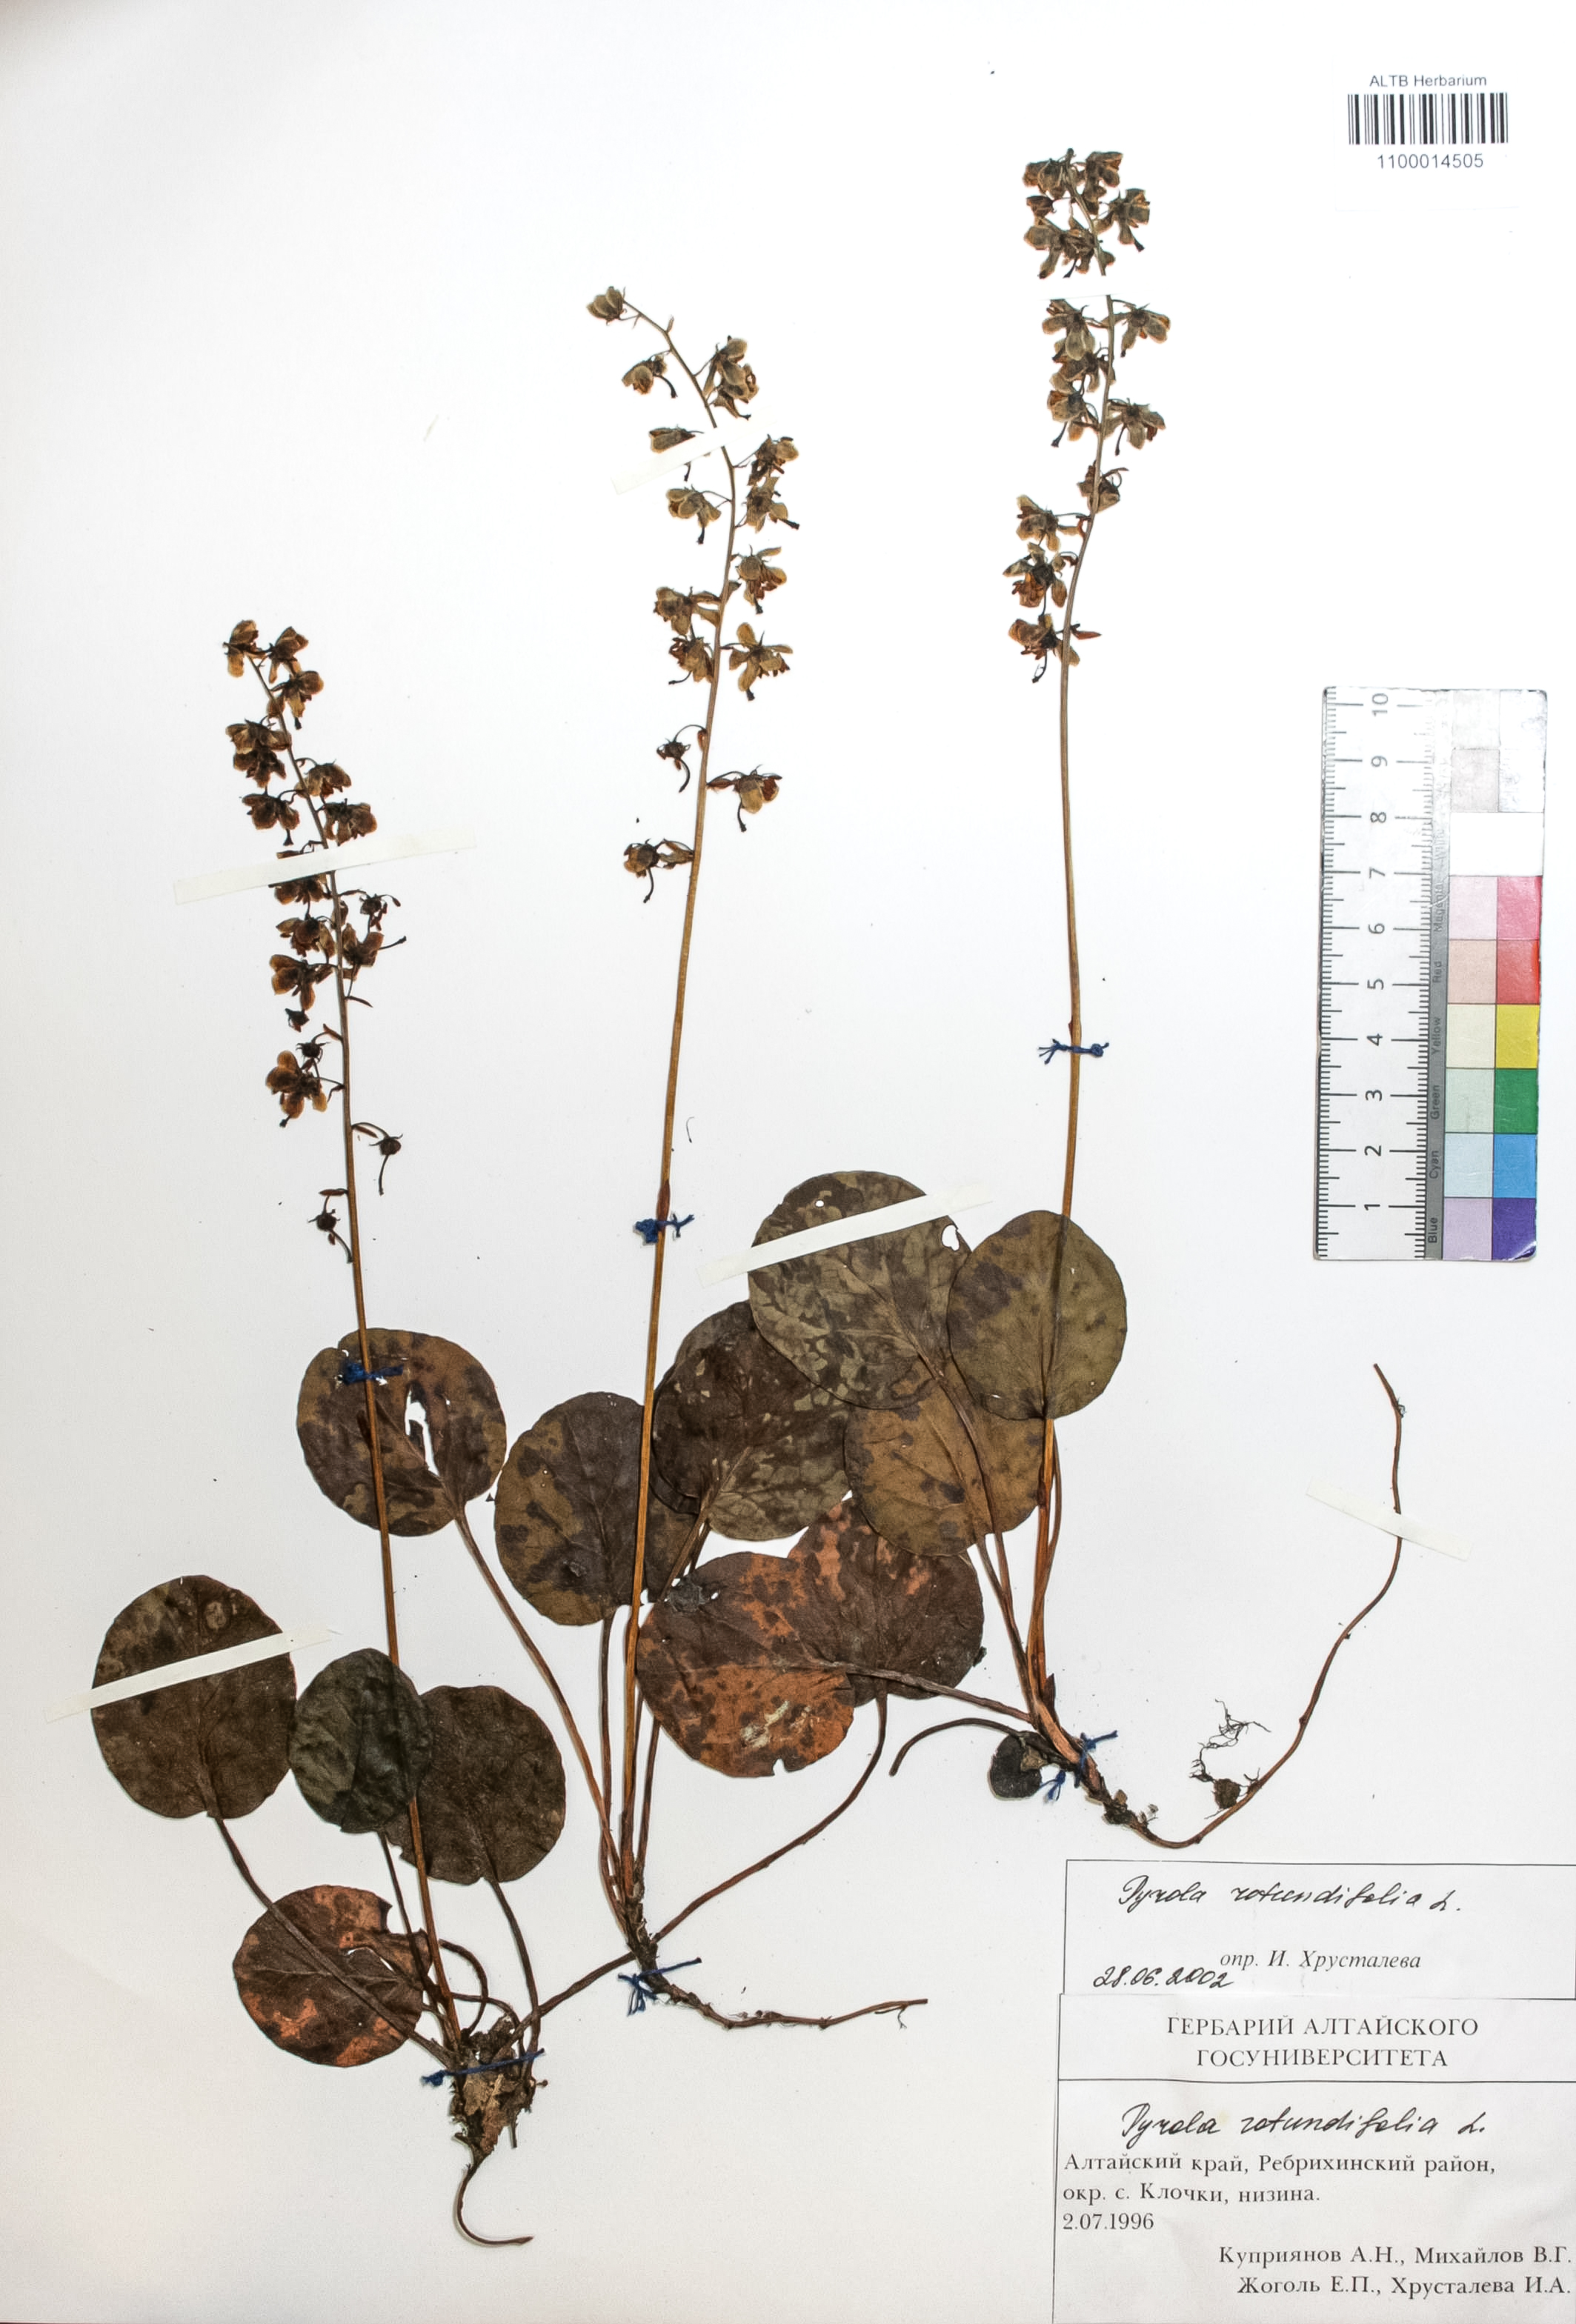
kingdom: Plantae
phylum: Tracheophyta
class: Magnoliopsida
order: Ericales
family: Ericaceae
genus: Pyrola
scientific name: Pyrola rotundifolia
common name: Round-leaved wintergreen
